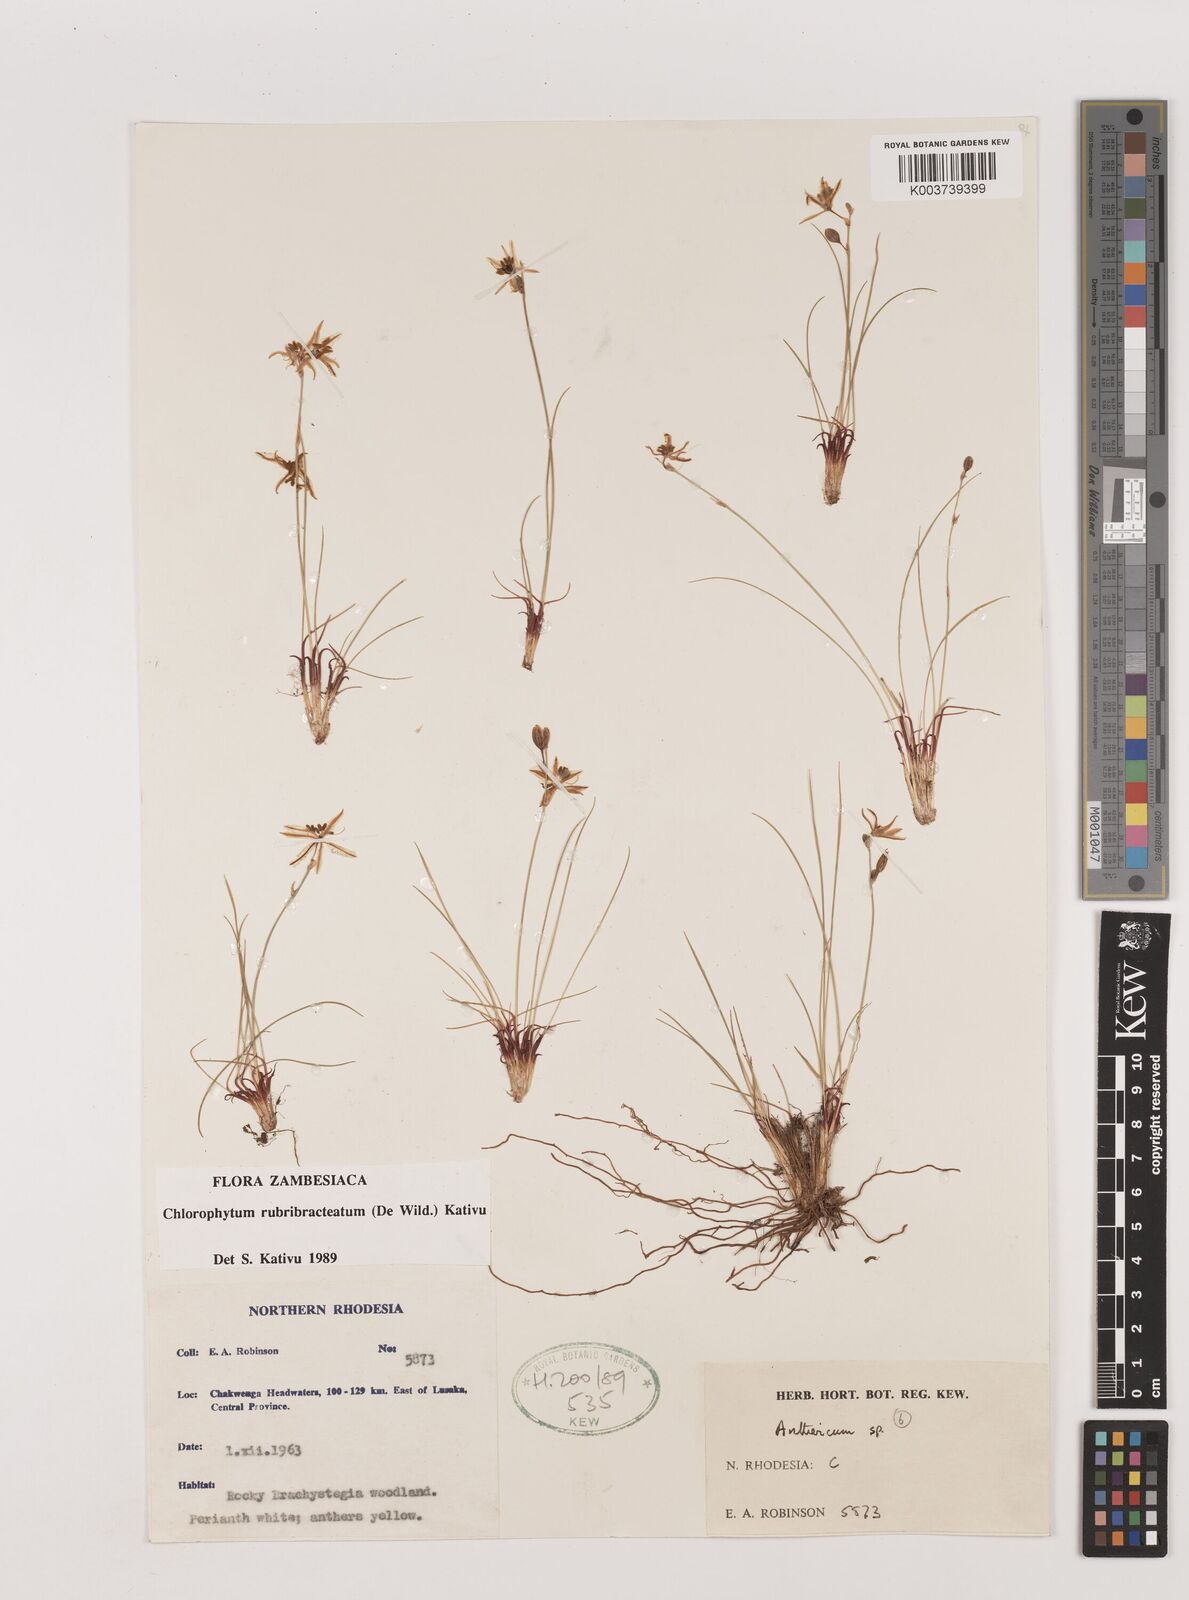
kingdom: Plantae
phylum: Tracheophyta
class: Liliopsida
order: Asparagales
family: Asparagaceae
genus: Chlorophytum
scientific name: Chlorophytum rubribracteatum
